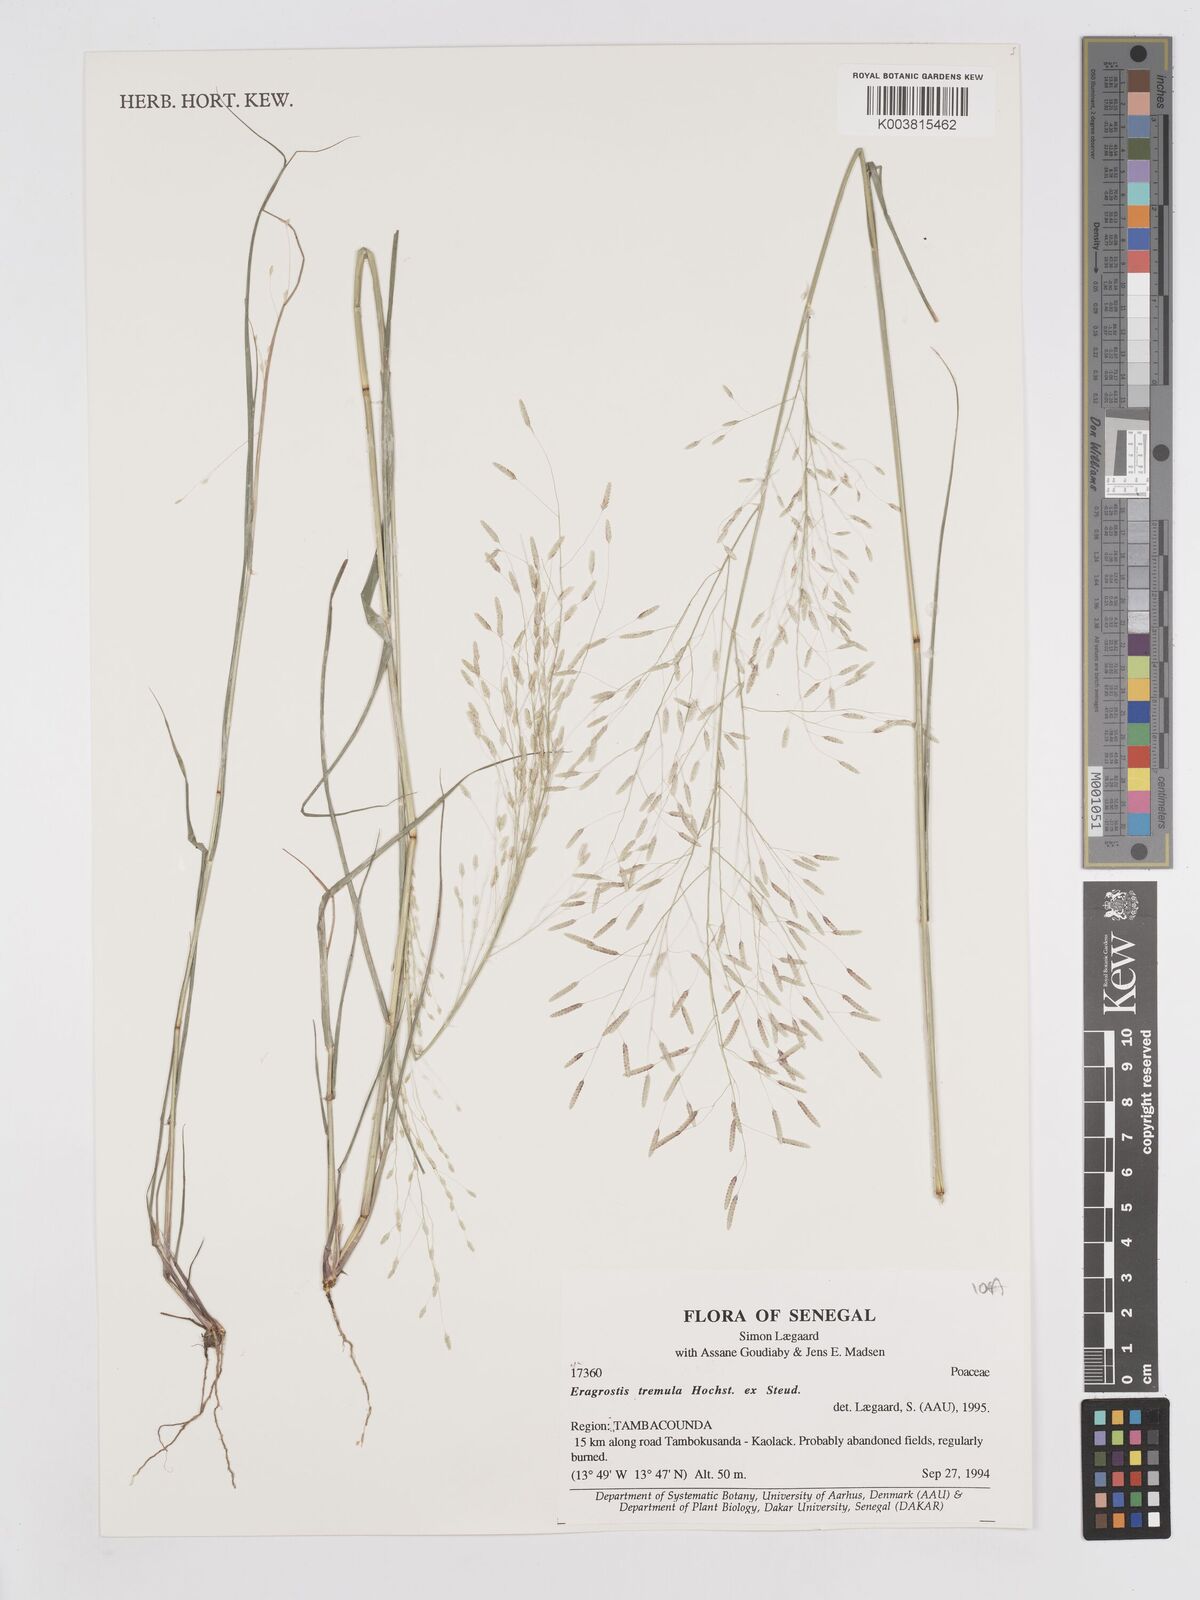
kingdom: Plantae
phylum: Tracheophyta
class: Liliopsida
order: Poales
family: Poaceae
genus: Eragrostis
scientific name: Eragrostis tremula
